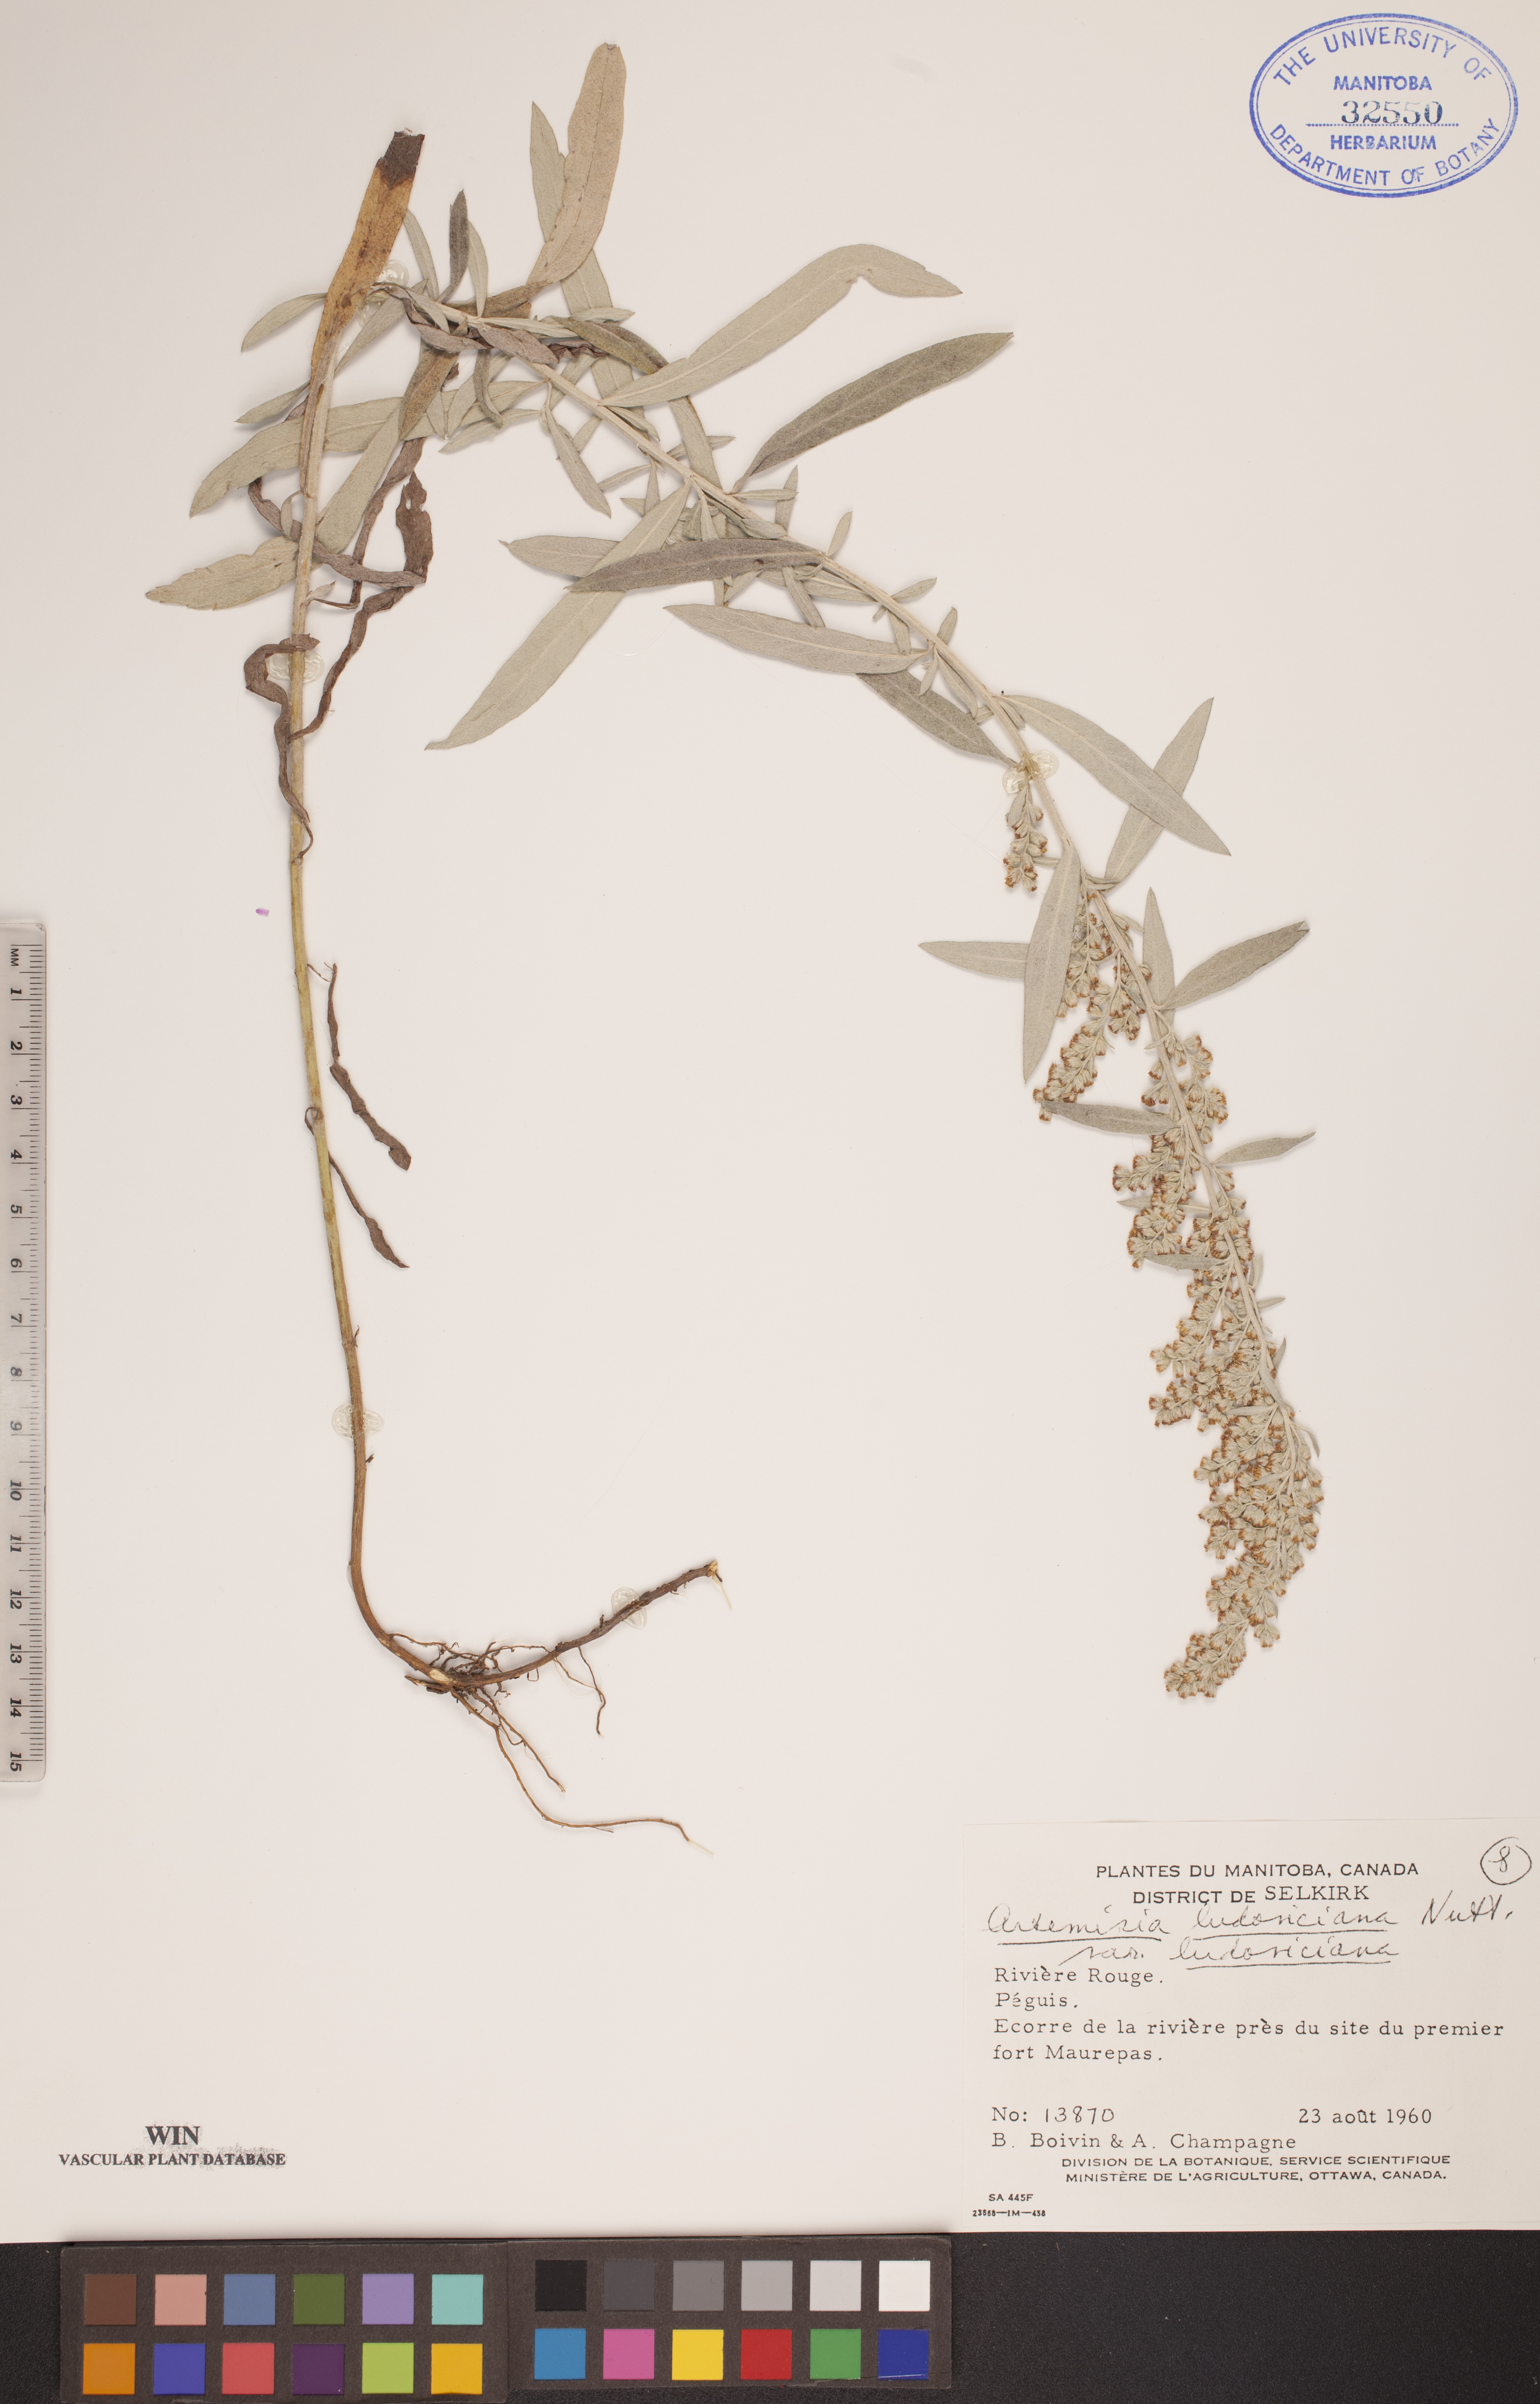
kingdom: Plantae
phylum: Tracheophyta
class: Magnoliopsida
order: Asterales
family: Asteraceae
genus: Artemisia
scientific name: Artemisia ludoviciana
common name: Western mugwort
